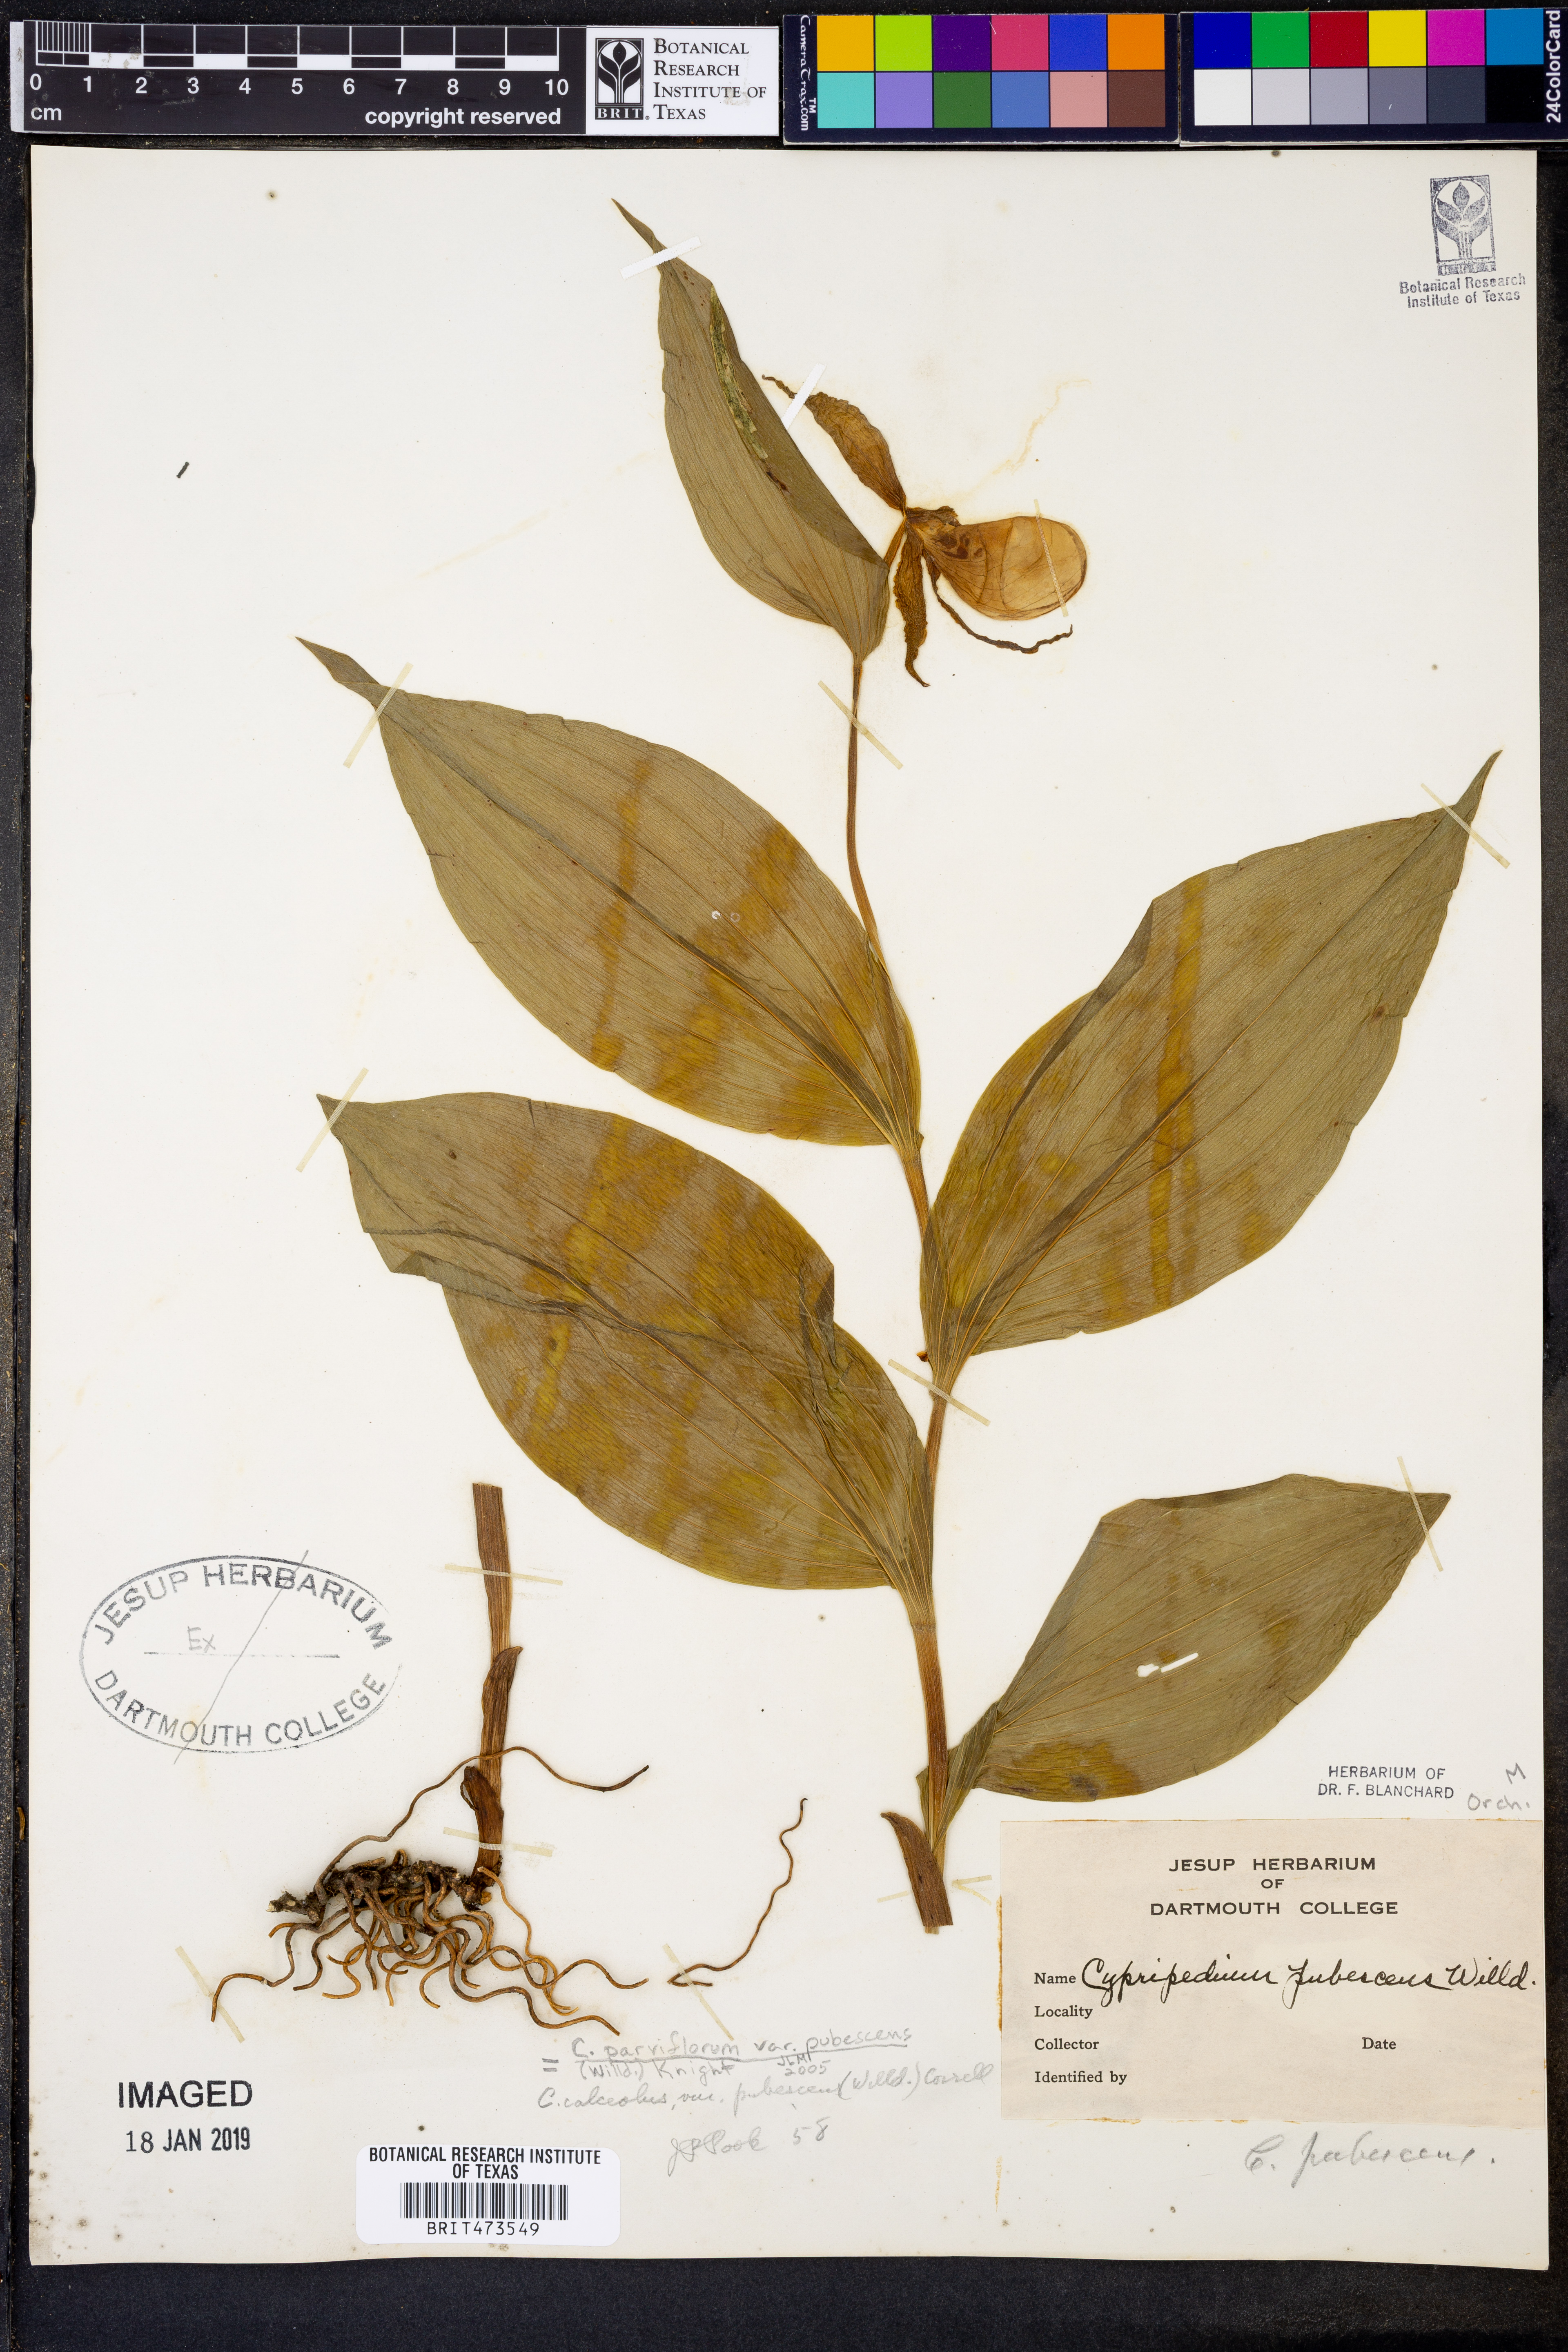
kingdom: Plantae
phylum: Tracheophyta
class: Liliopsida
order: Asparagales
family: Orchidaceae
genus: Cypripedium
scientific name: Cypripedium parviflorum
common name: American yellow lady's-slipper
